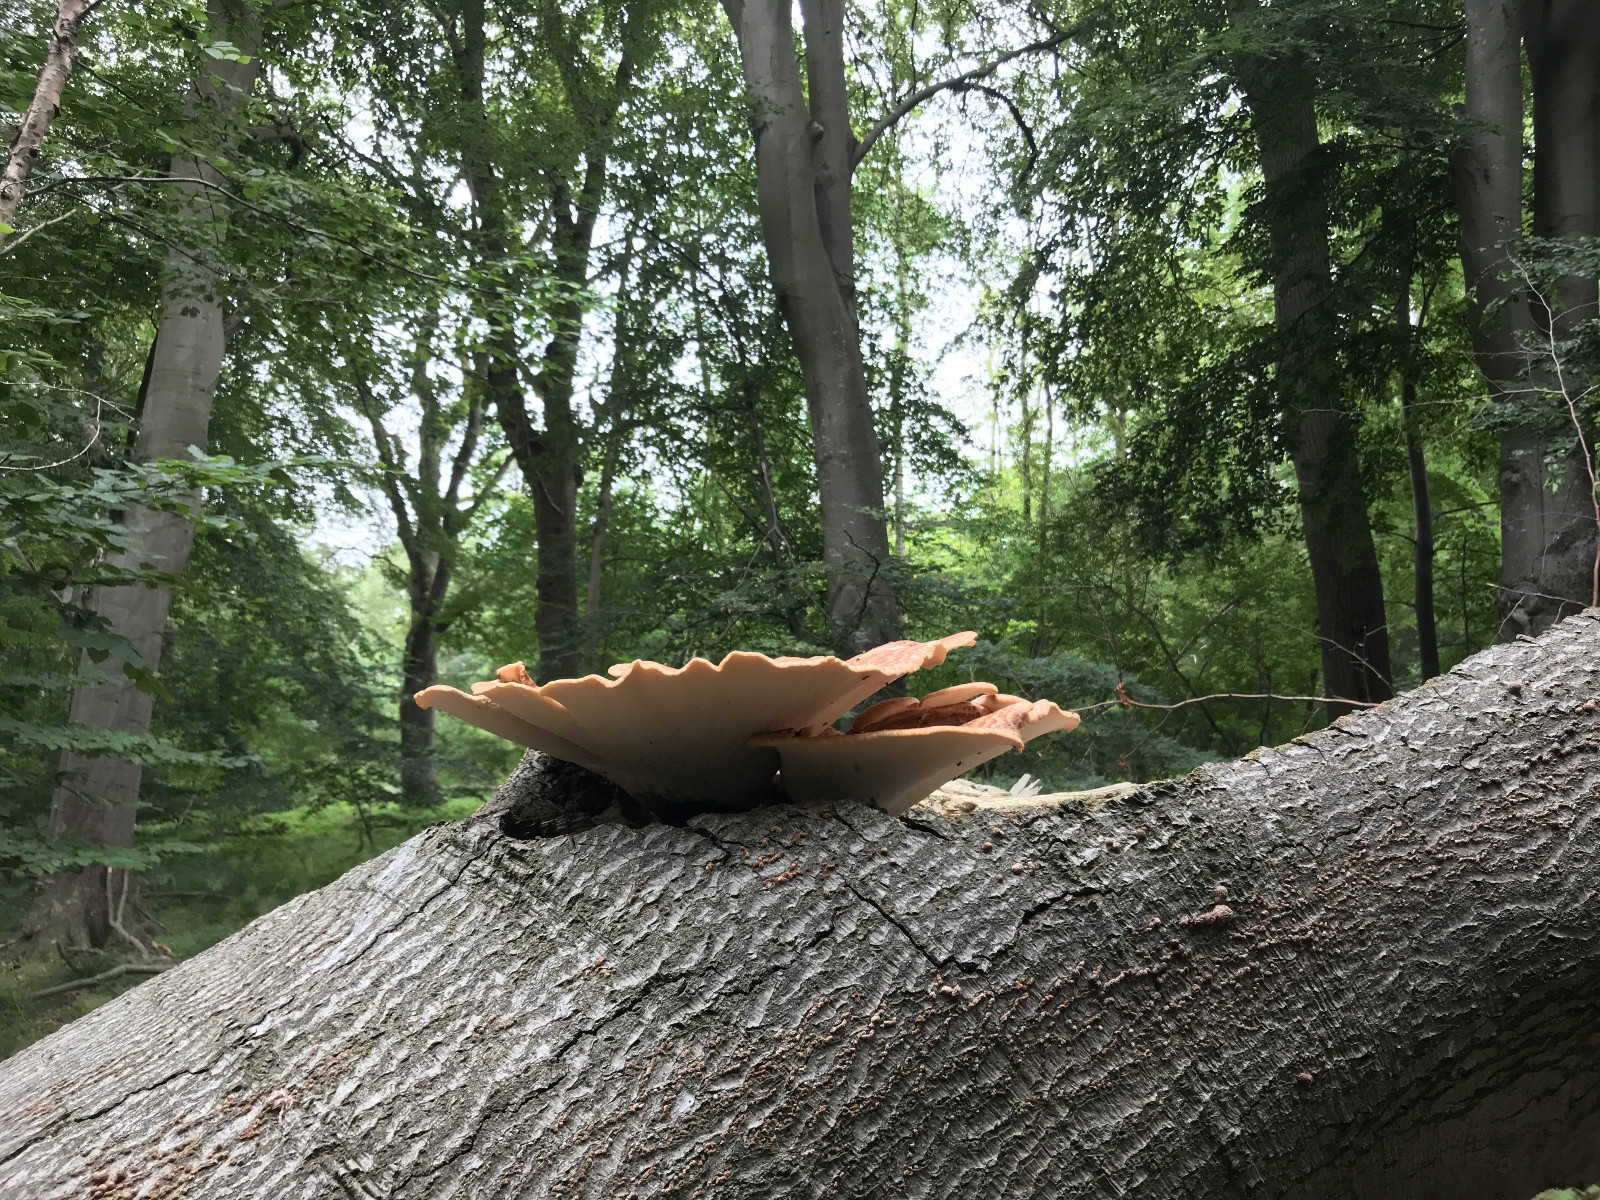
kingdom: Fungi
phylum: Basidiomycota
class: Agaricomycetes
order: Polyporales
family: Polyporaceae
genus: Cerioporus
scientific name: Cerioporus squamosus
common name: skællet stilkporesvamp
